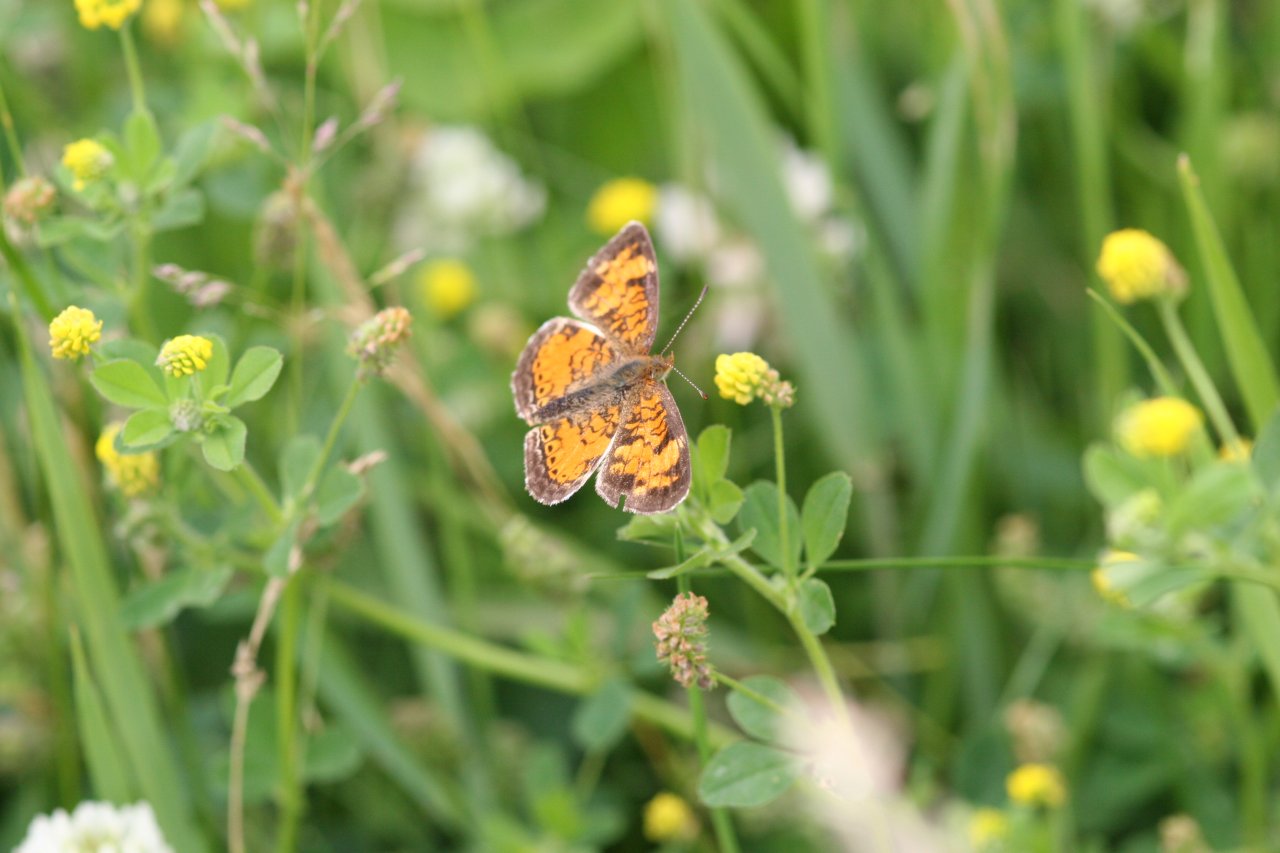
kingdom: Animalia
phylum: Arthropoda
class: Insecta
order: Lepidoptera
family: Nymphalidae
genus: Phyciodes
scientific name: Phyciodes tharos
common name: Northern Crescent
